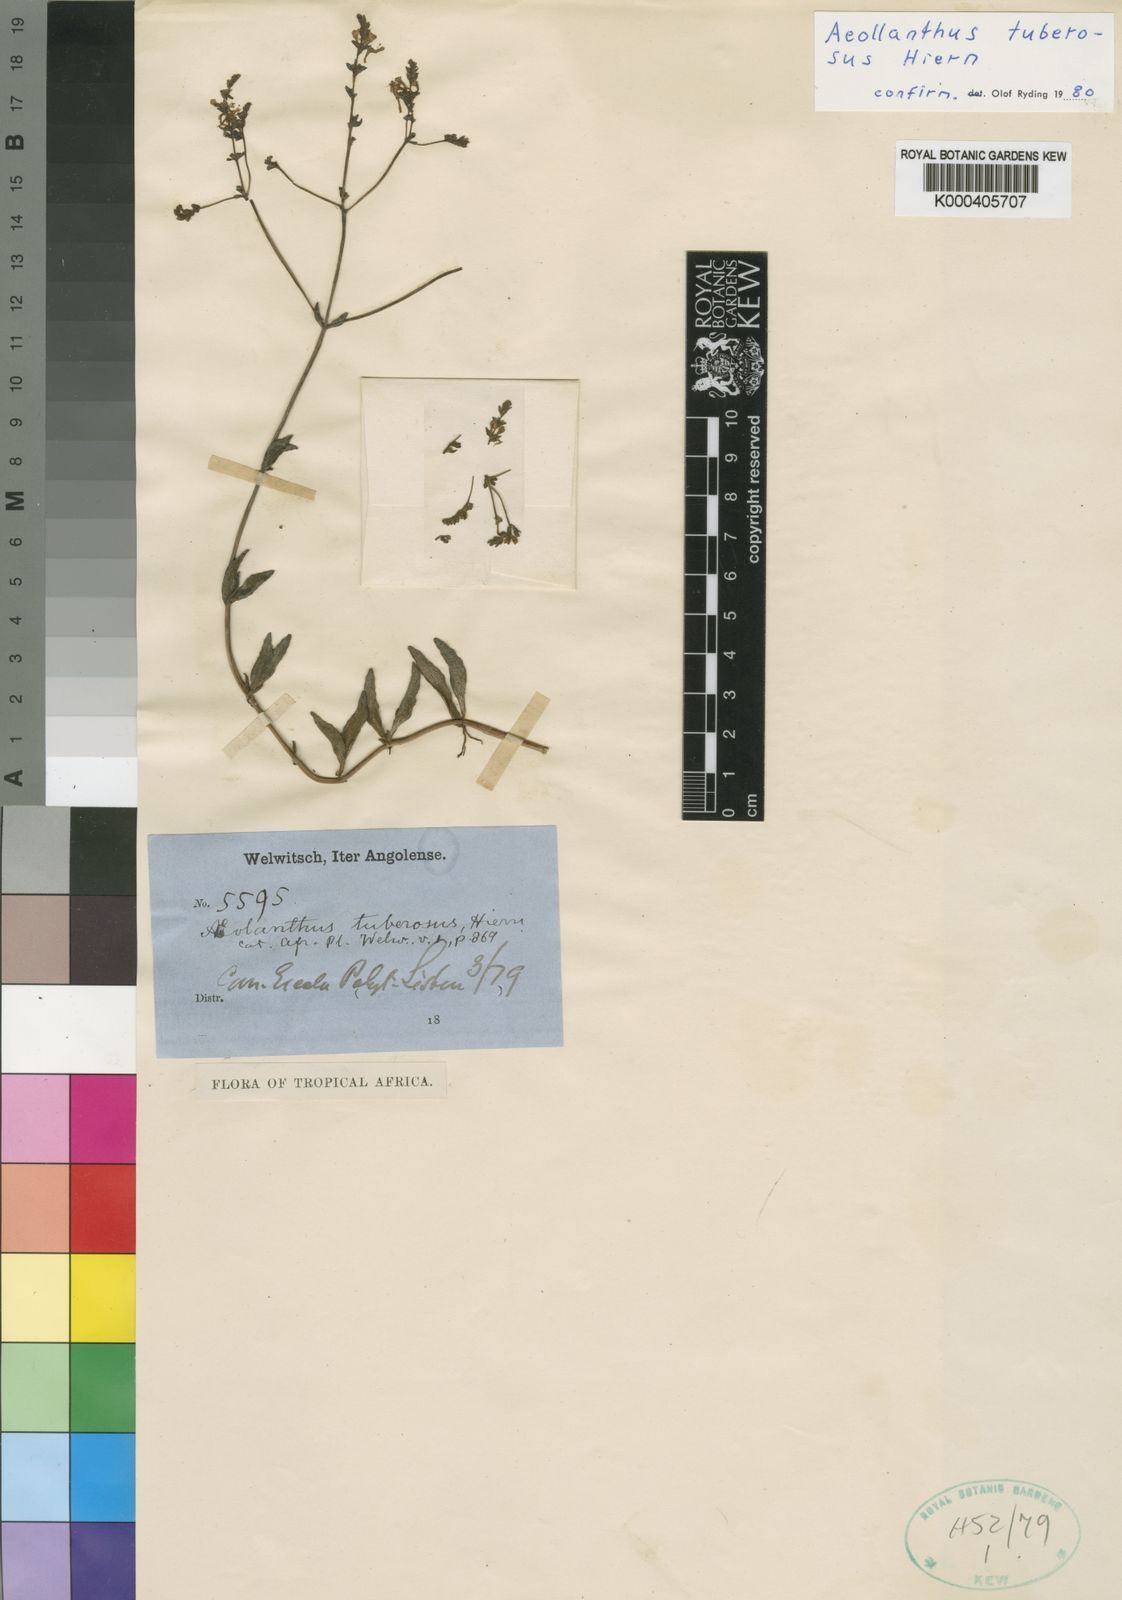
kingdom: Plantae
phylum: Tracheophyta
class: Magnoliopsida
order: Lamiales
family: Lamiaceae
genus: Aeollanthus
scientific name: Aeollanthus tuberosus
